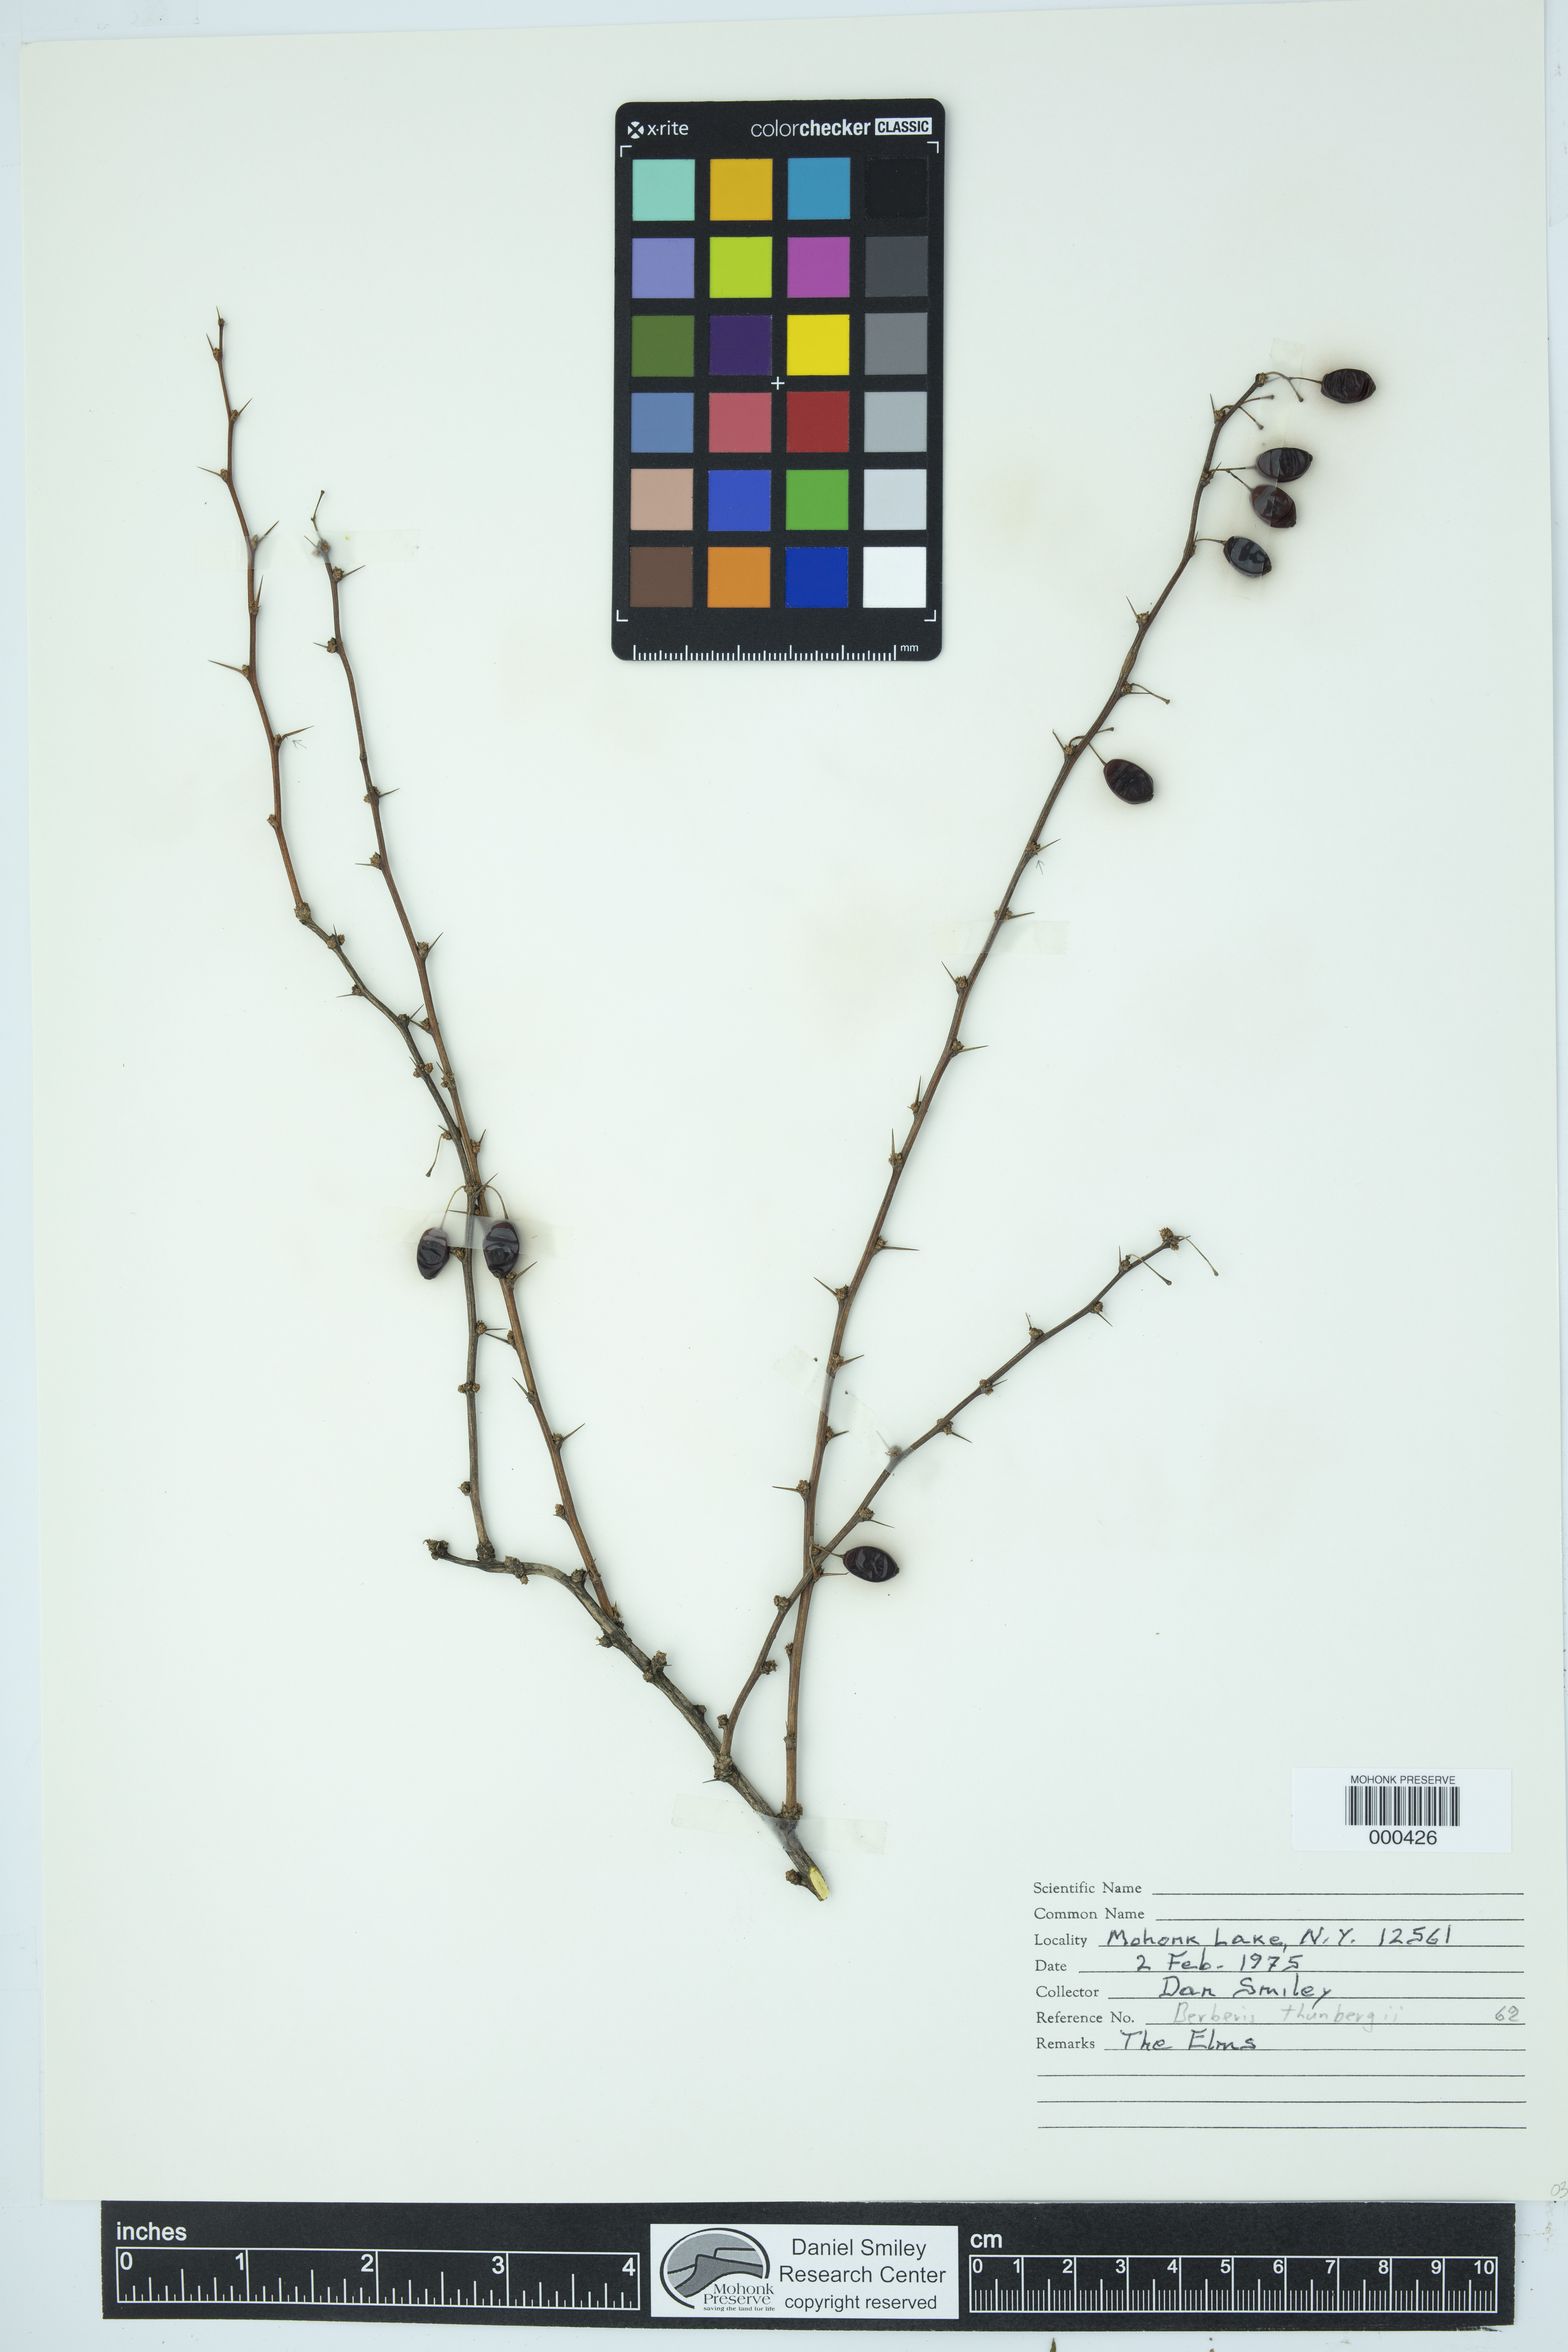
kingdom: Plantae
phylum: Tracheophyta
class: Magnoliopsida
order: Ranunculales
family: Berberidaceae
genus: Berberis
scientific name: Berberis thunbergii
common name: Japanese barberry
